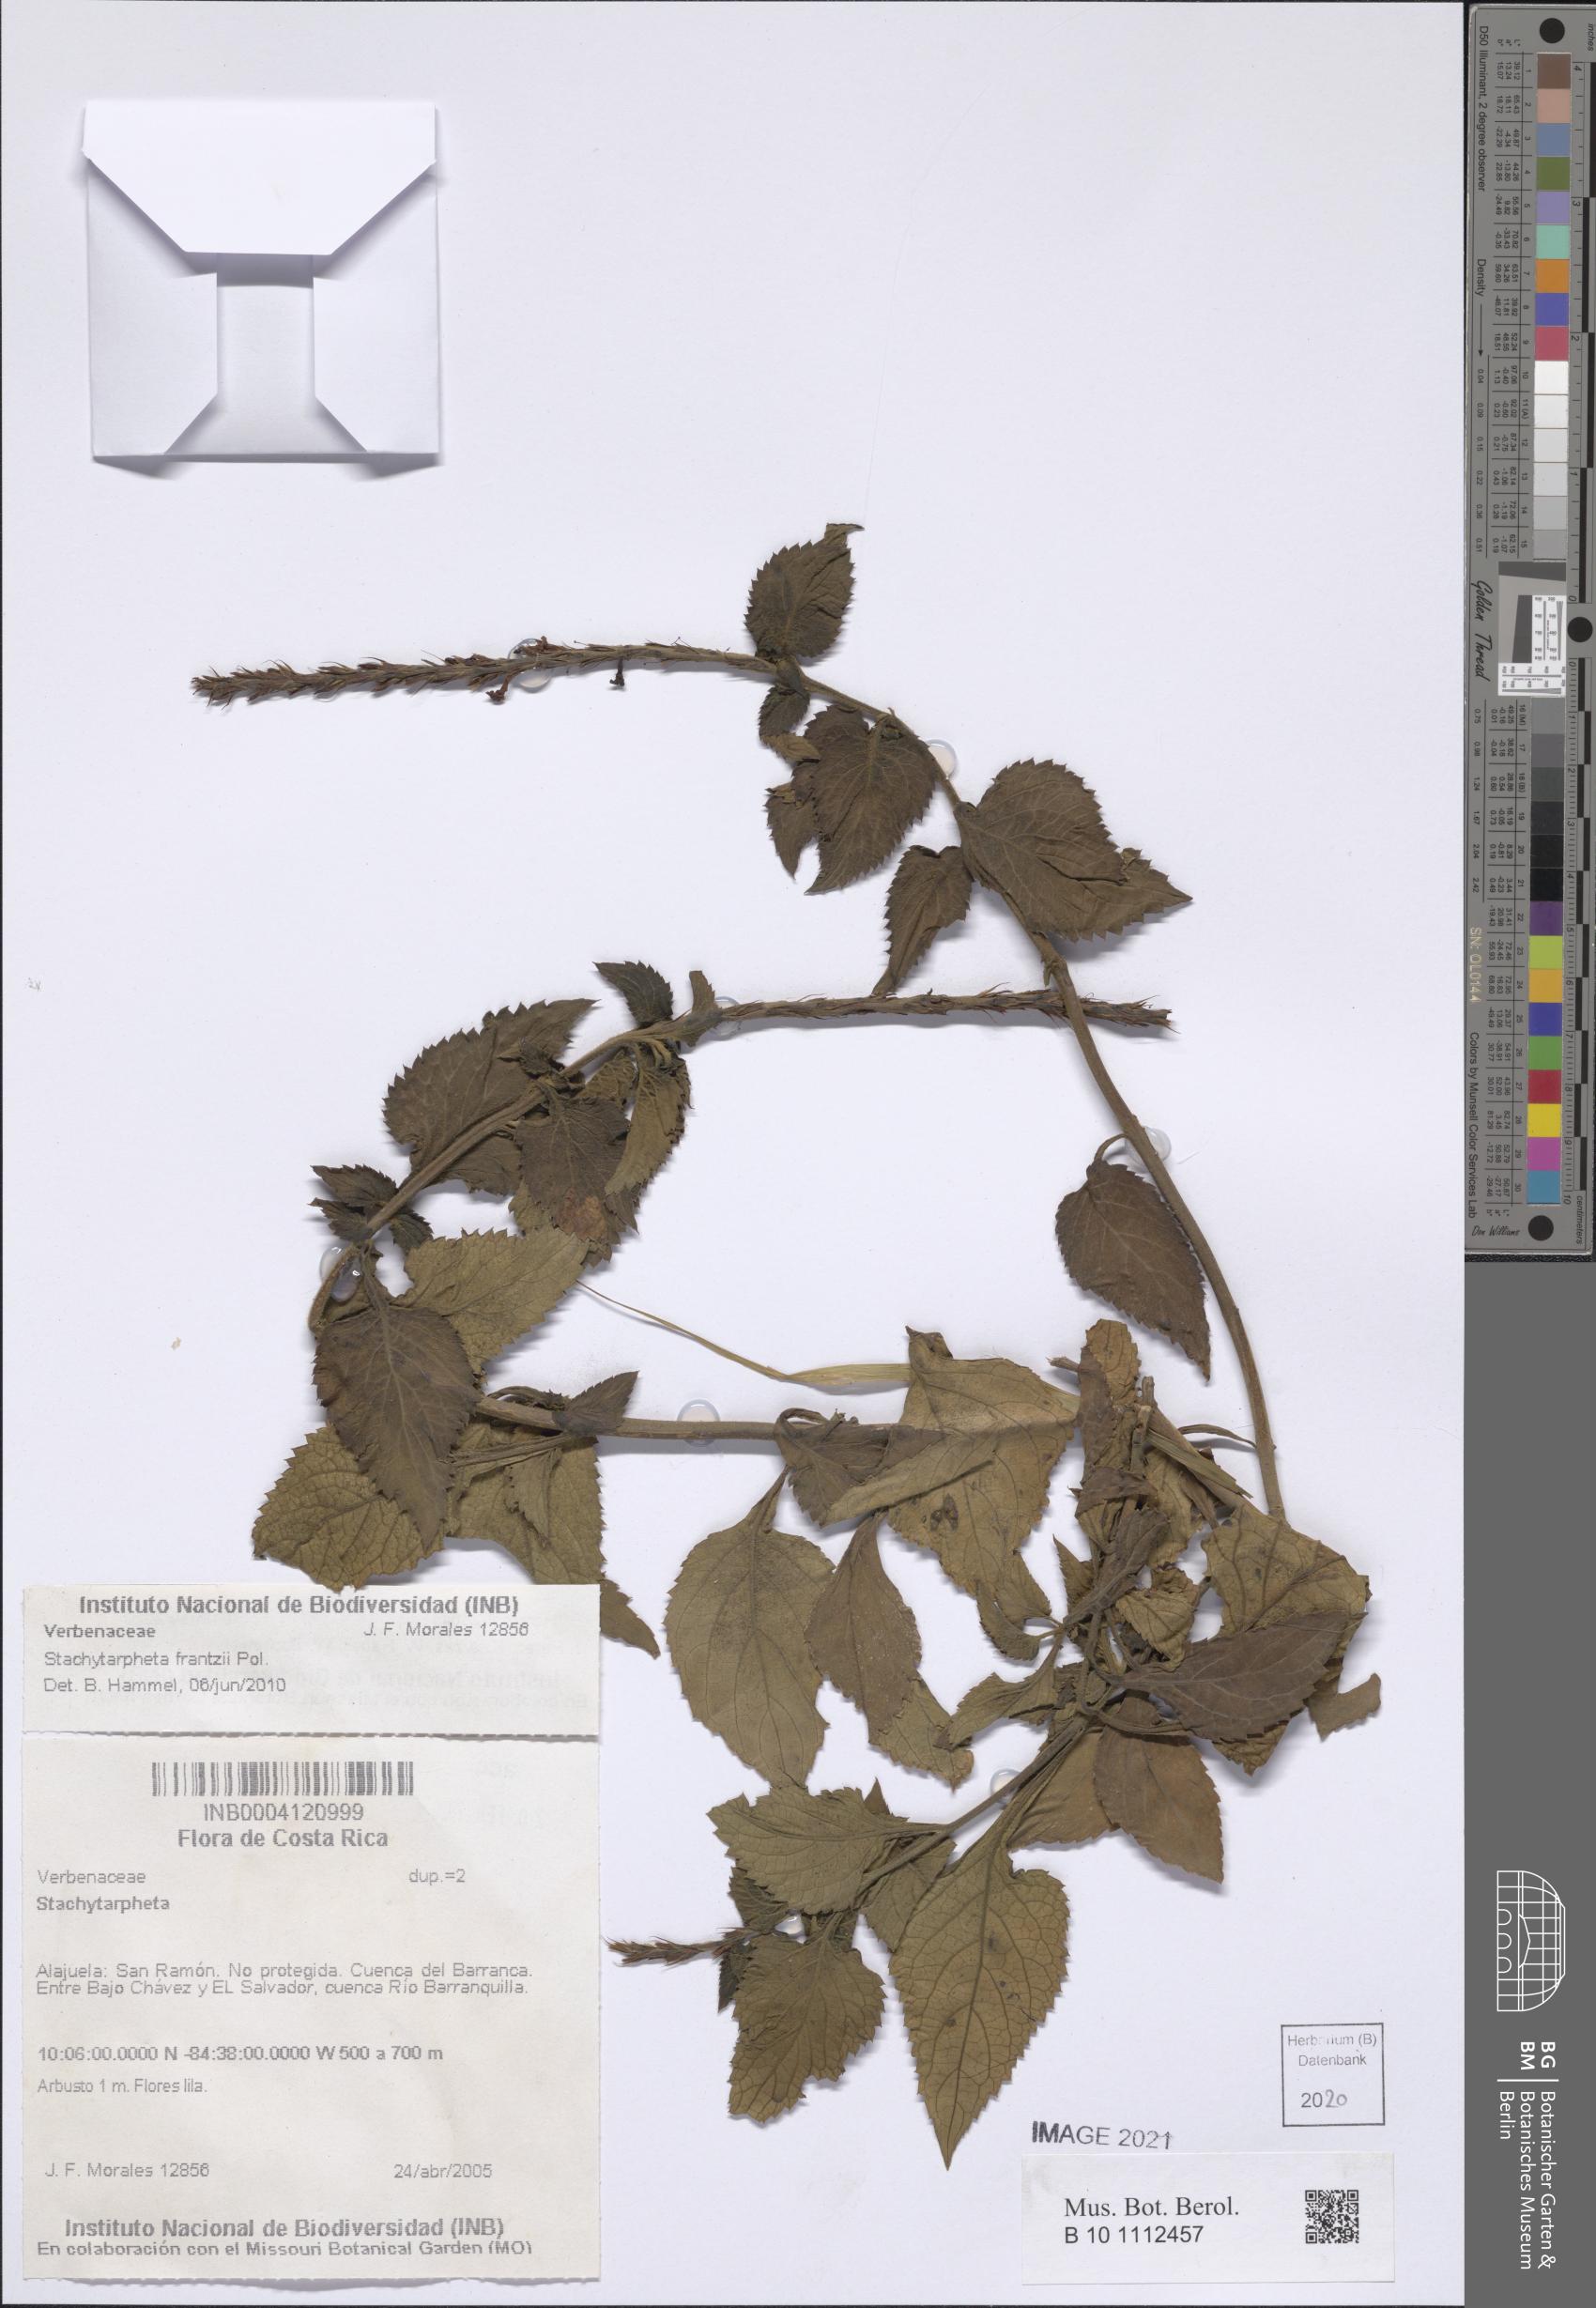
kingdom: Plantae
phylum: Tracheophyta
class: Magnoliopsida
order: Lamiales
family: Verbenaceae
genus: Stachytarpheta
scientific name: Stachytarpheta frantzii
